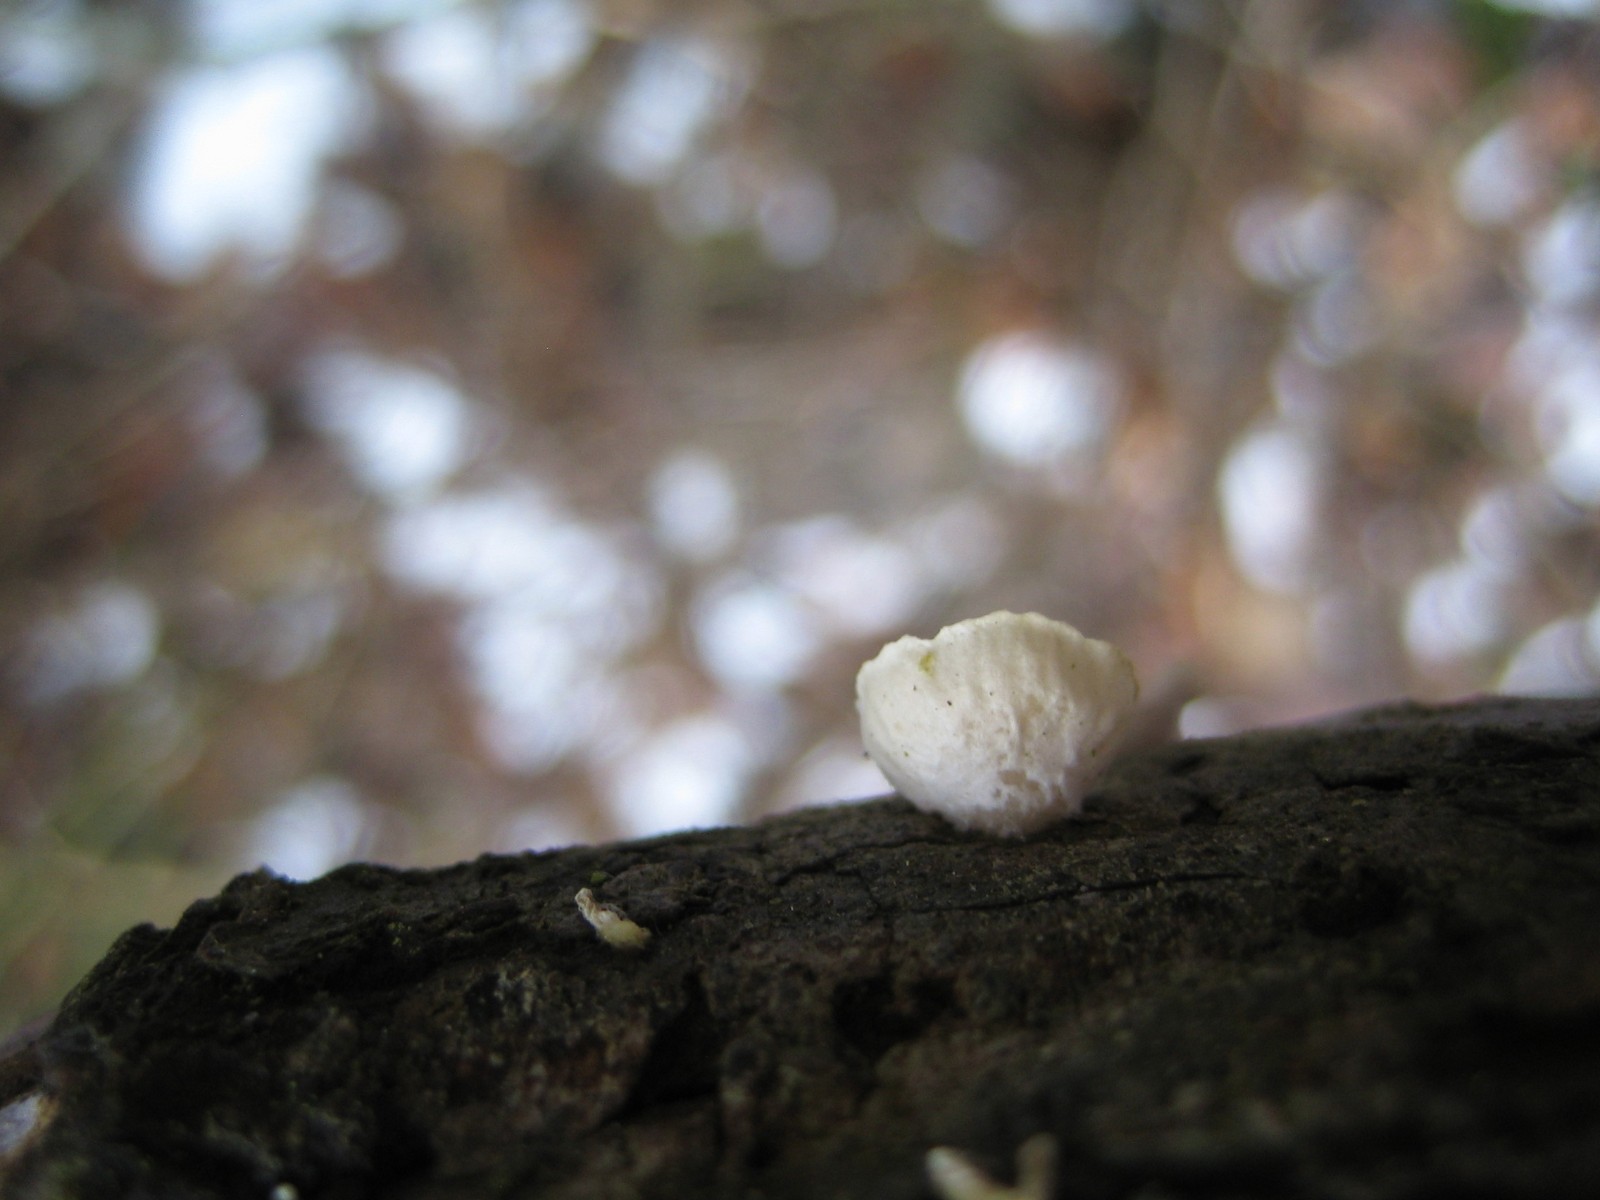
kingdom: Fungi
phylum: Basidiomycota
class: Agaricomycetes
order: Agaricales
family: Crepidotaceae
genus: Crepidotus
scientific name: Crepidotus
